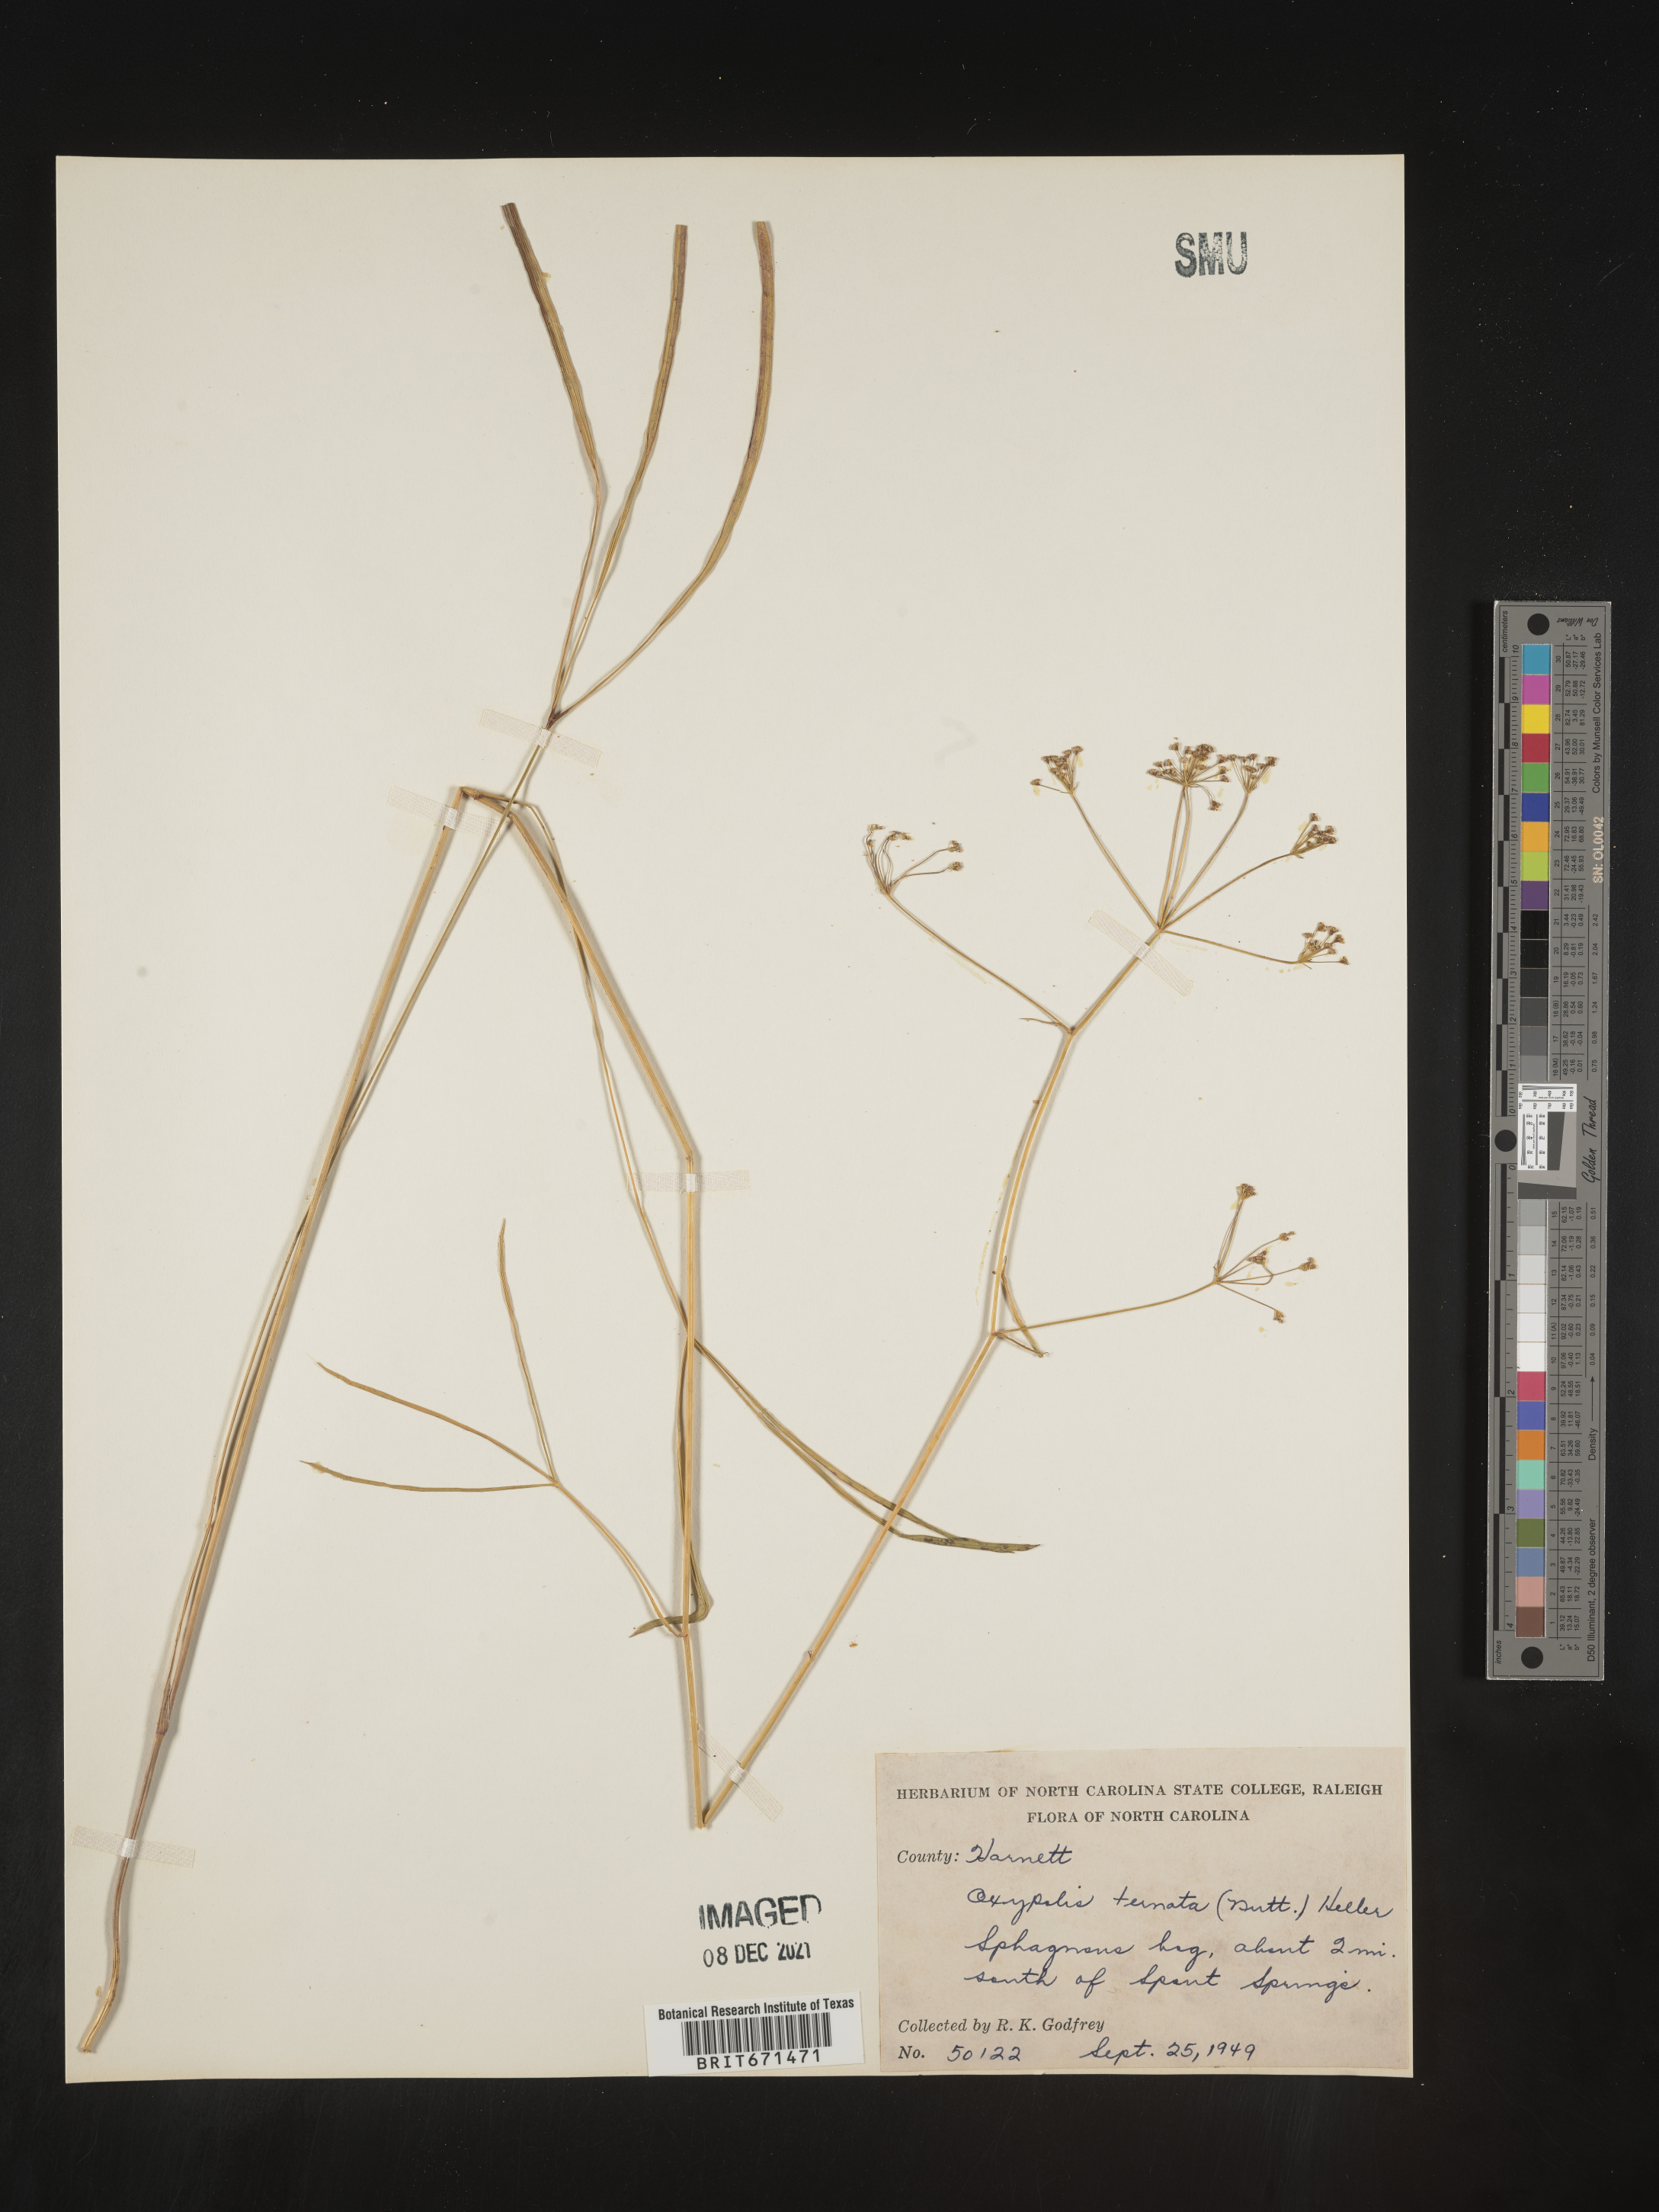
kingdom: Plantae
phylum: Tracheophyta
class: Magnoliopsida
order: Apiales
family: Apiaceae
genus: Oxypolis
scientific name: Oxypolis ternata
